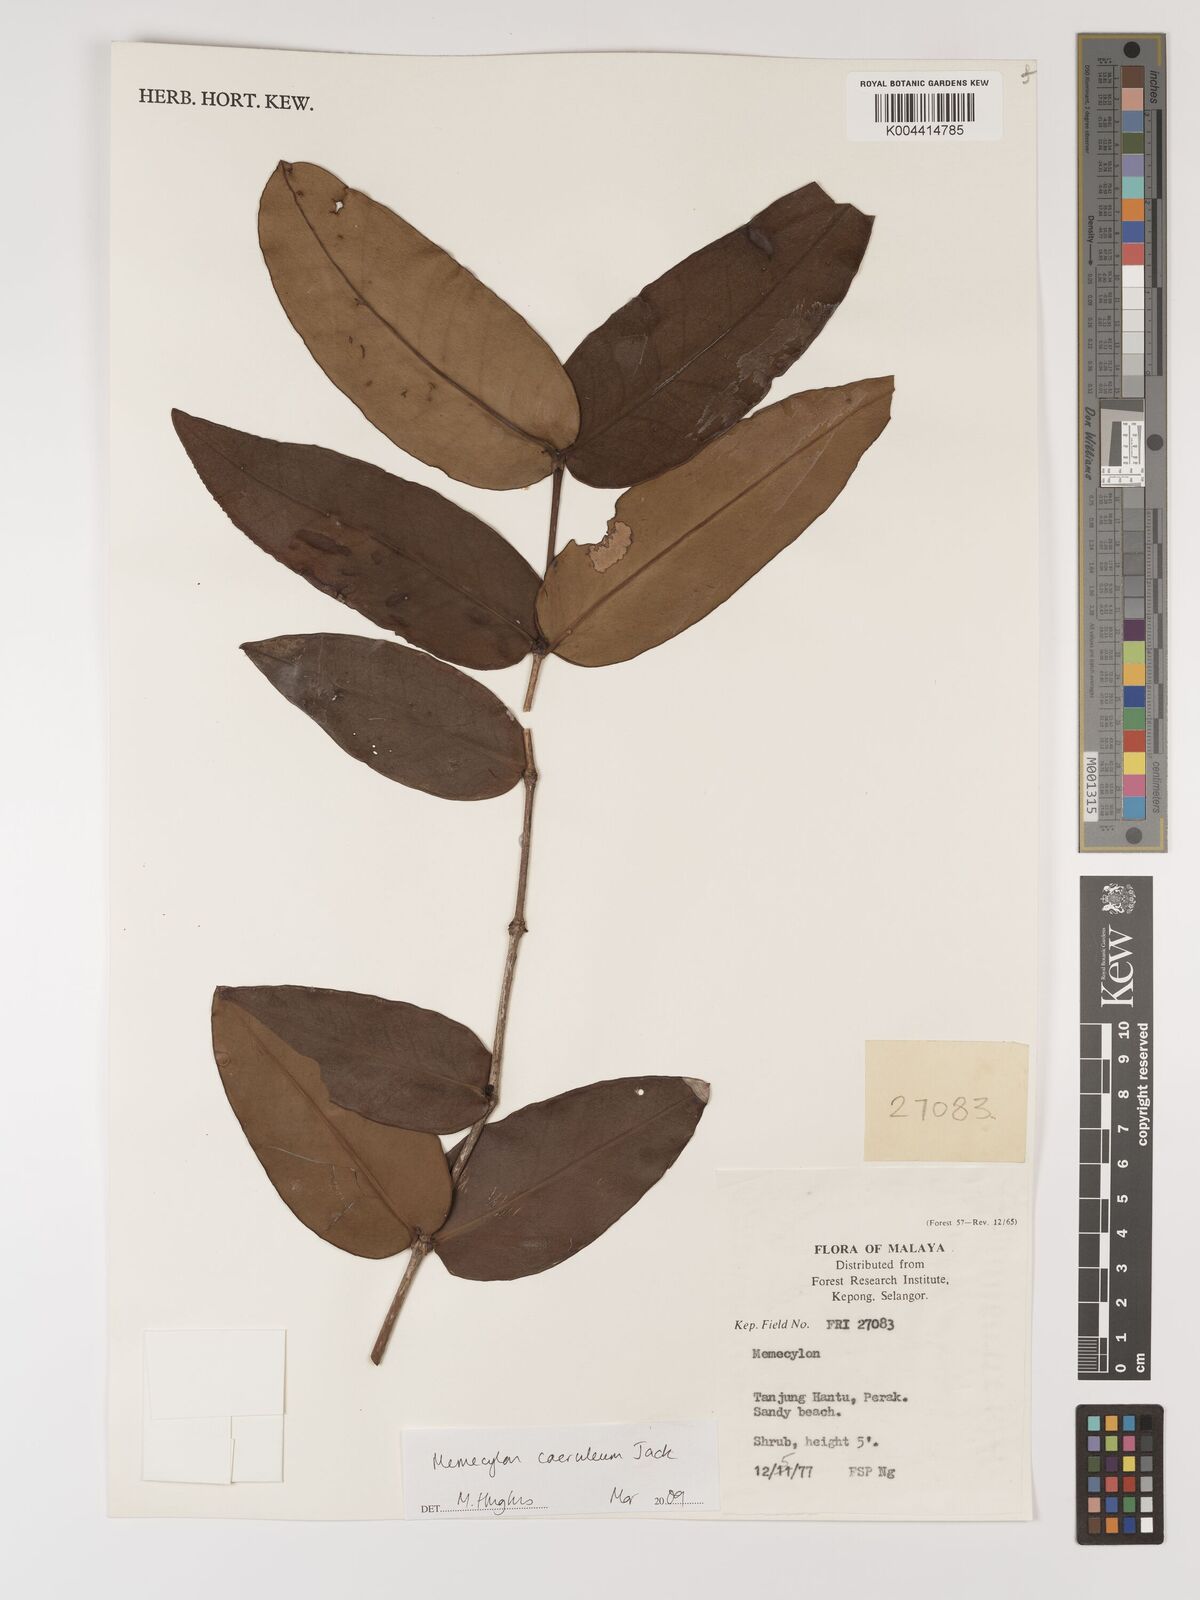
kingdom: Plantae
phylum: Tracheophyta
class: Magnoliopsida
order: Myrtales
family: Melastomataceae
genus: Memecylon
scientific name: Memecylon
